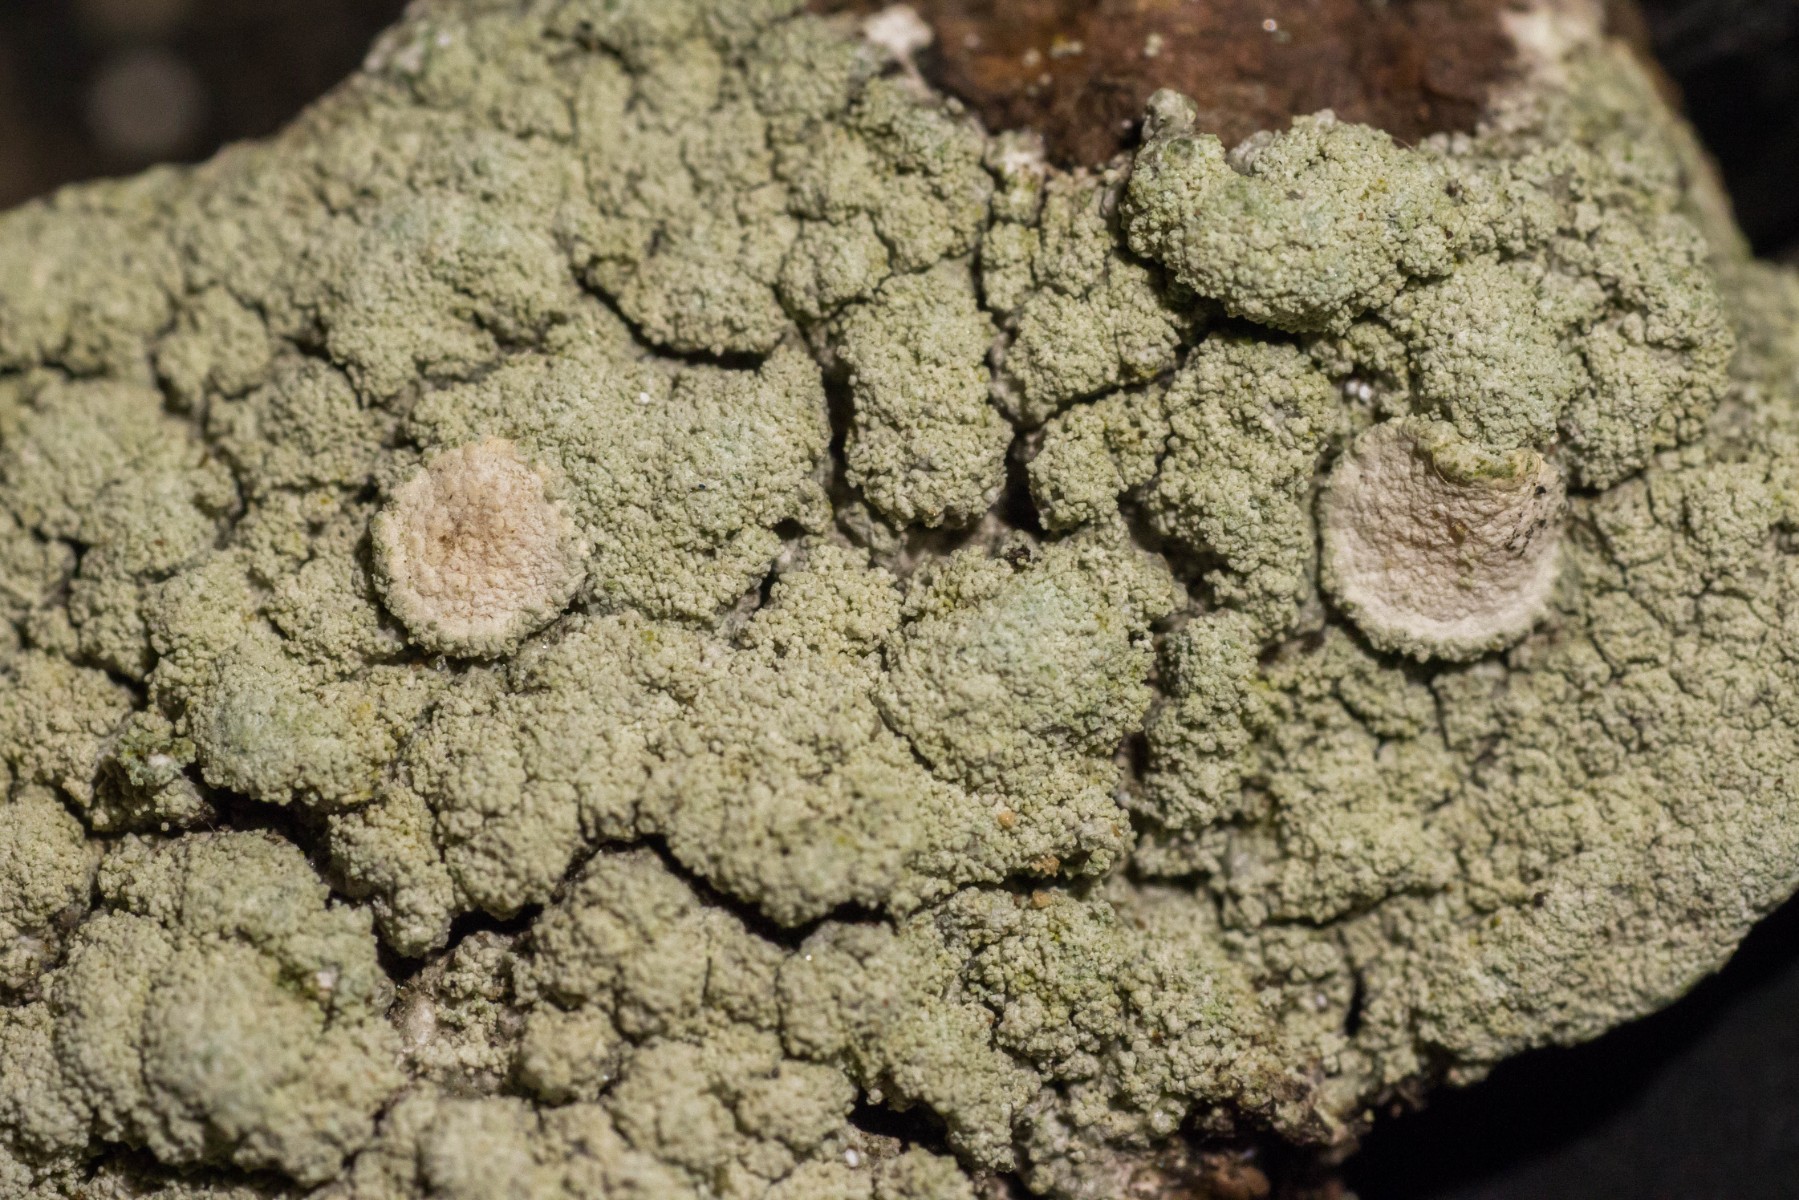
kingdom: Fungi
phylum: Ascomycota
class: Lecanoromycetes
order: Pertusariales
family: Ochrolechiaceae
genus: Ochrolechia
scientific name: Ochrolechia turneri
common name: turners blegskivelav
